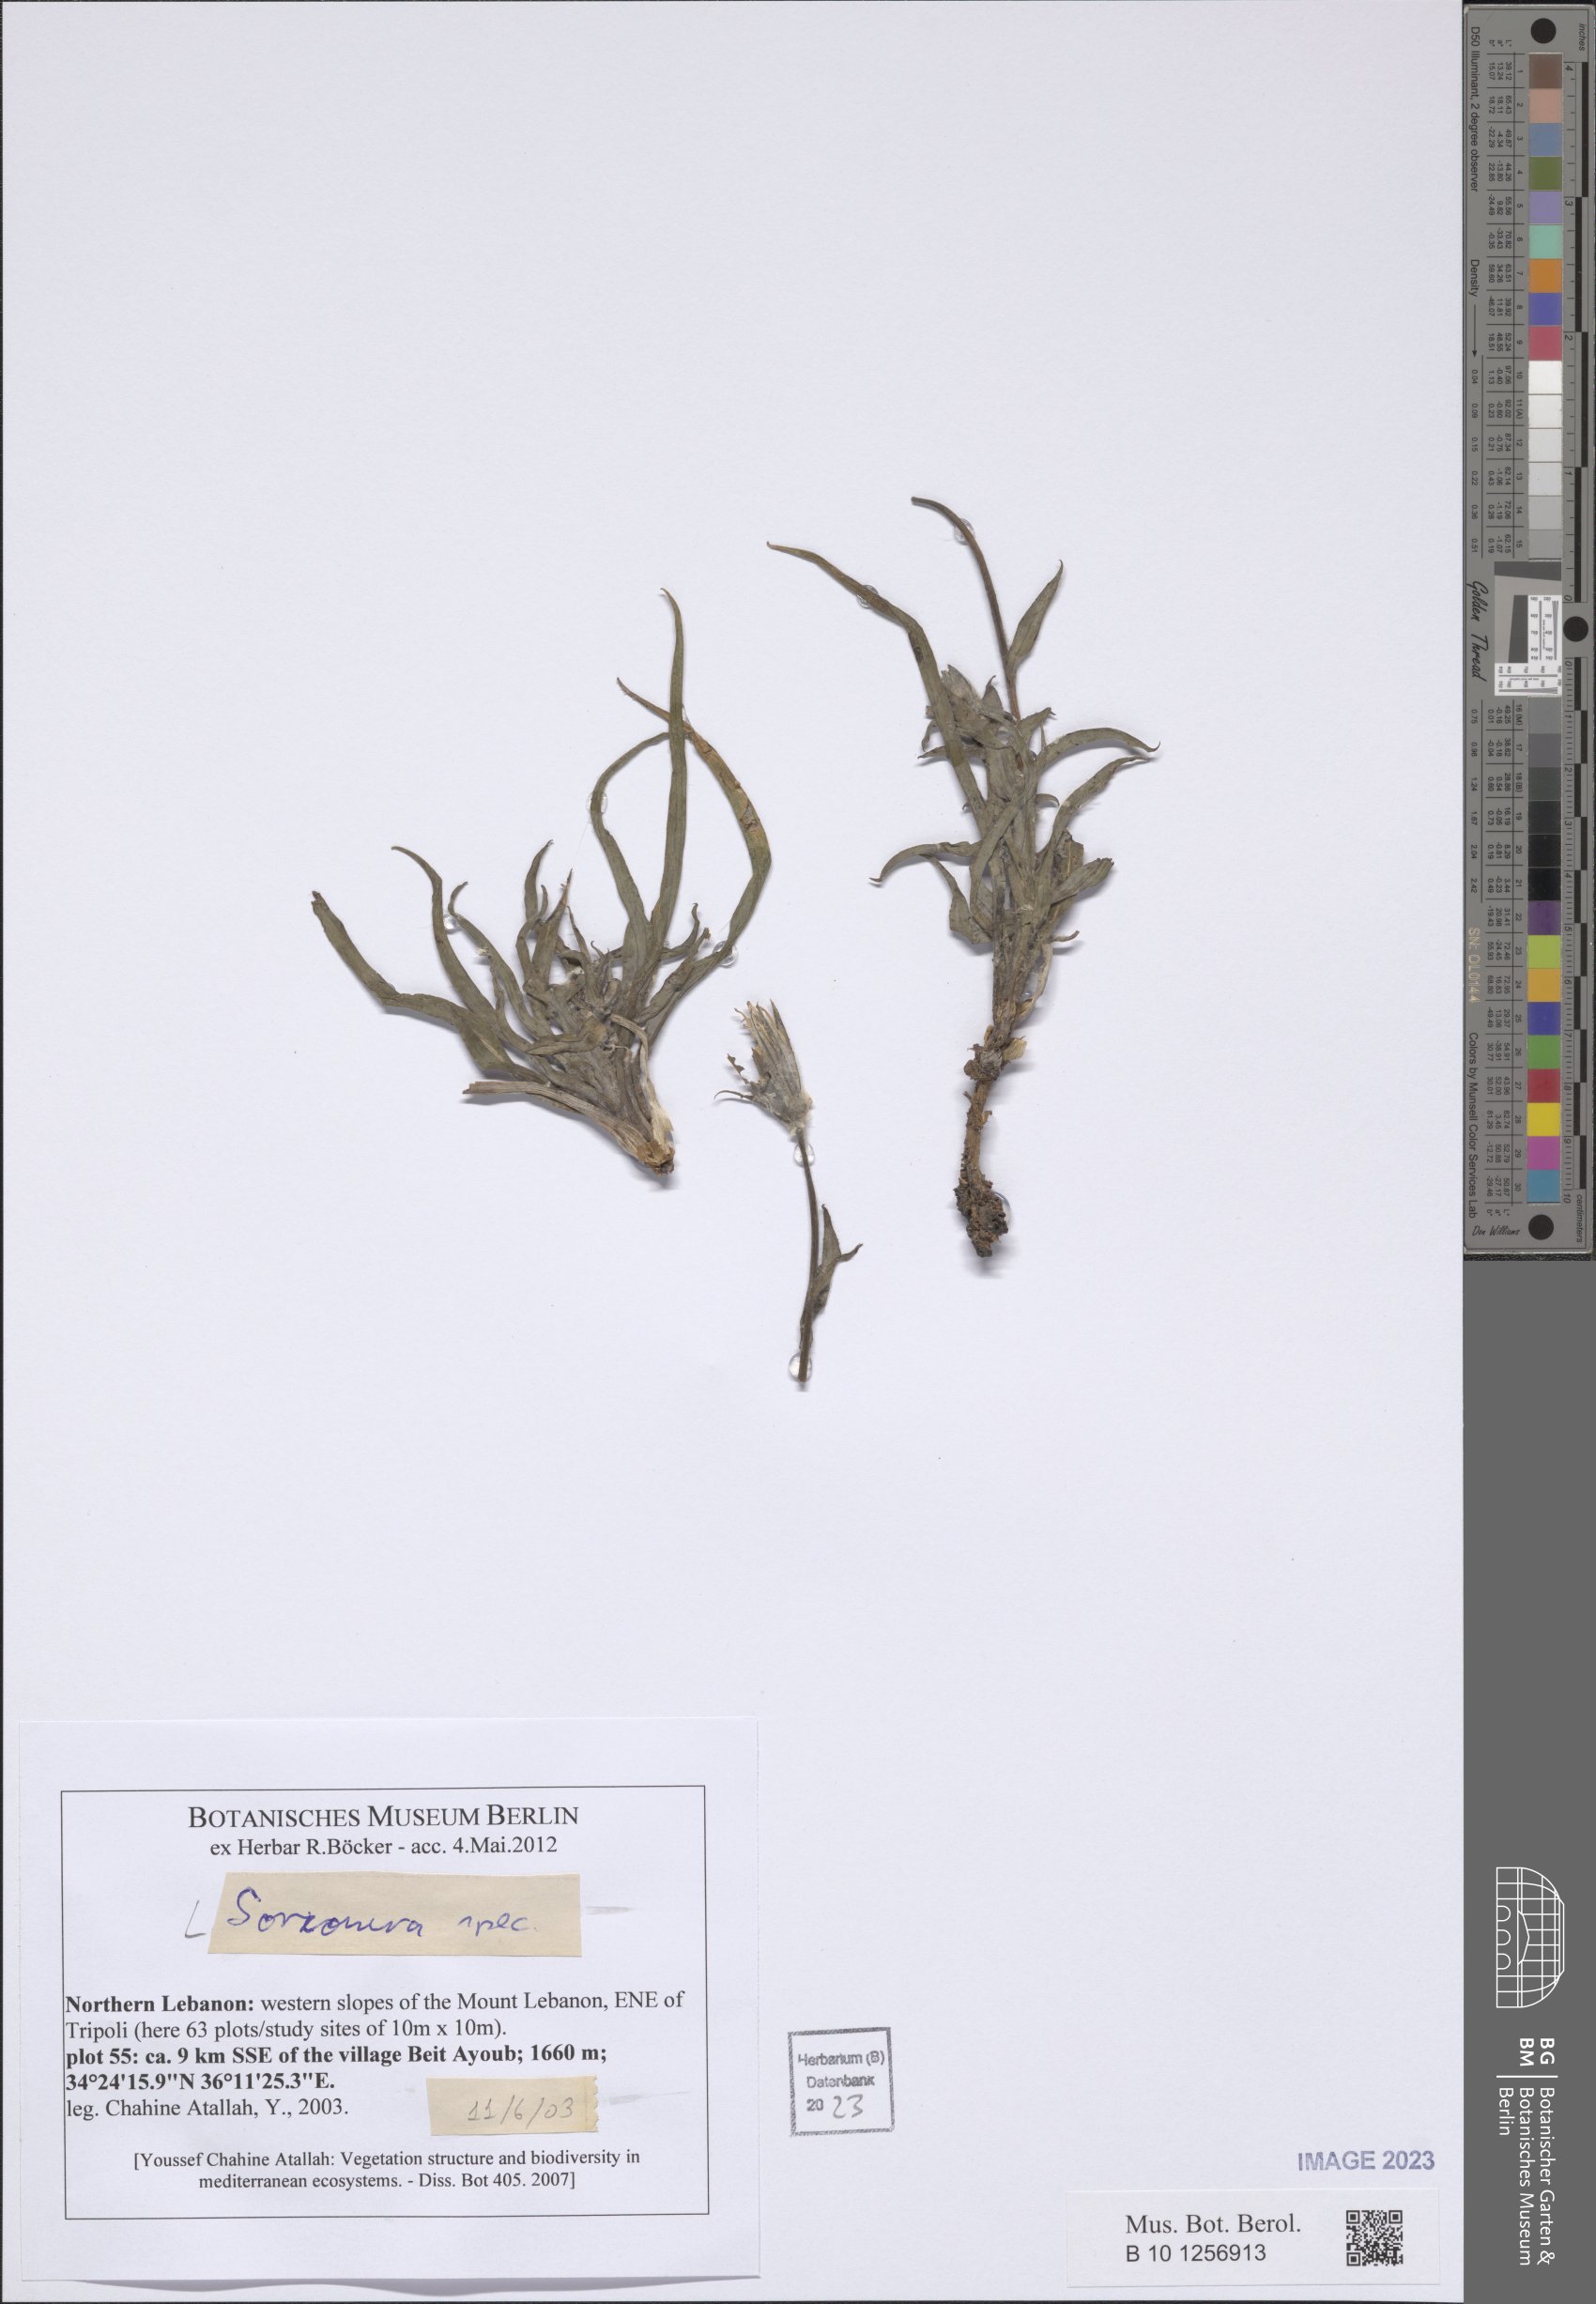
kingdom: Plantae
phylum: Tracheophyta
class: Magnoliopsida
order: Asterales
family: Asteraceae
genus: Scorzonera
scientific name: Scorzonera
